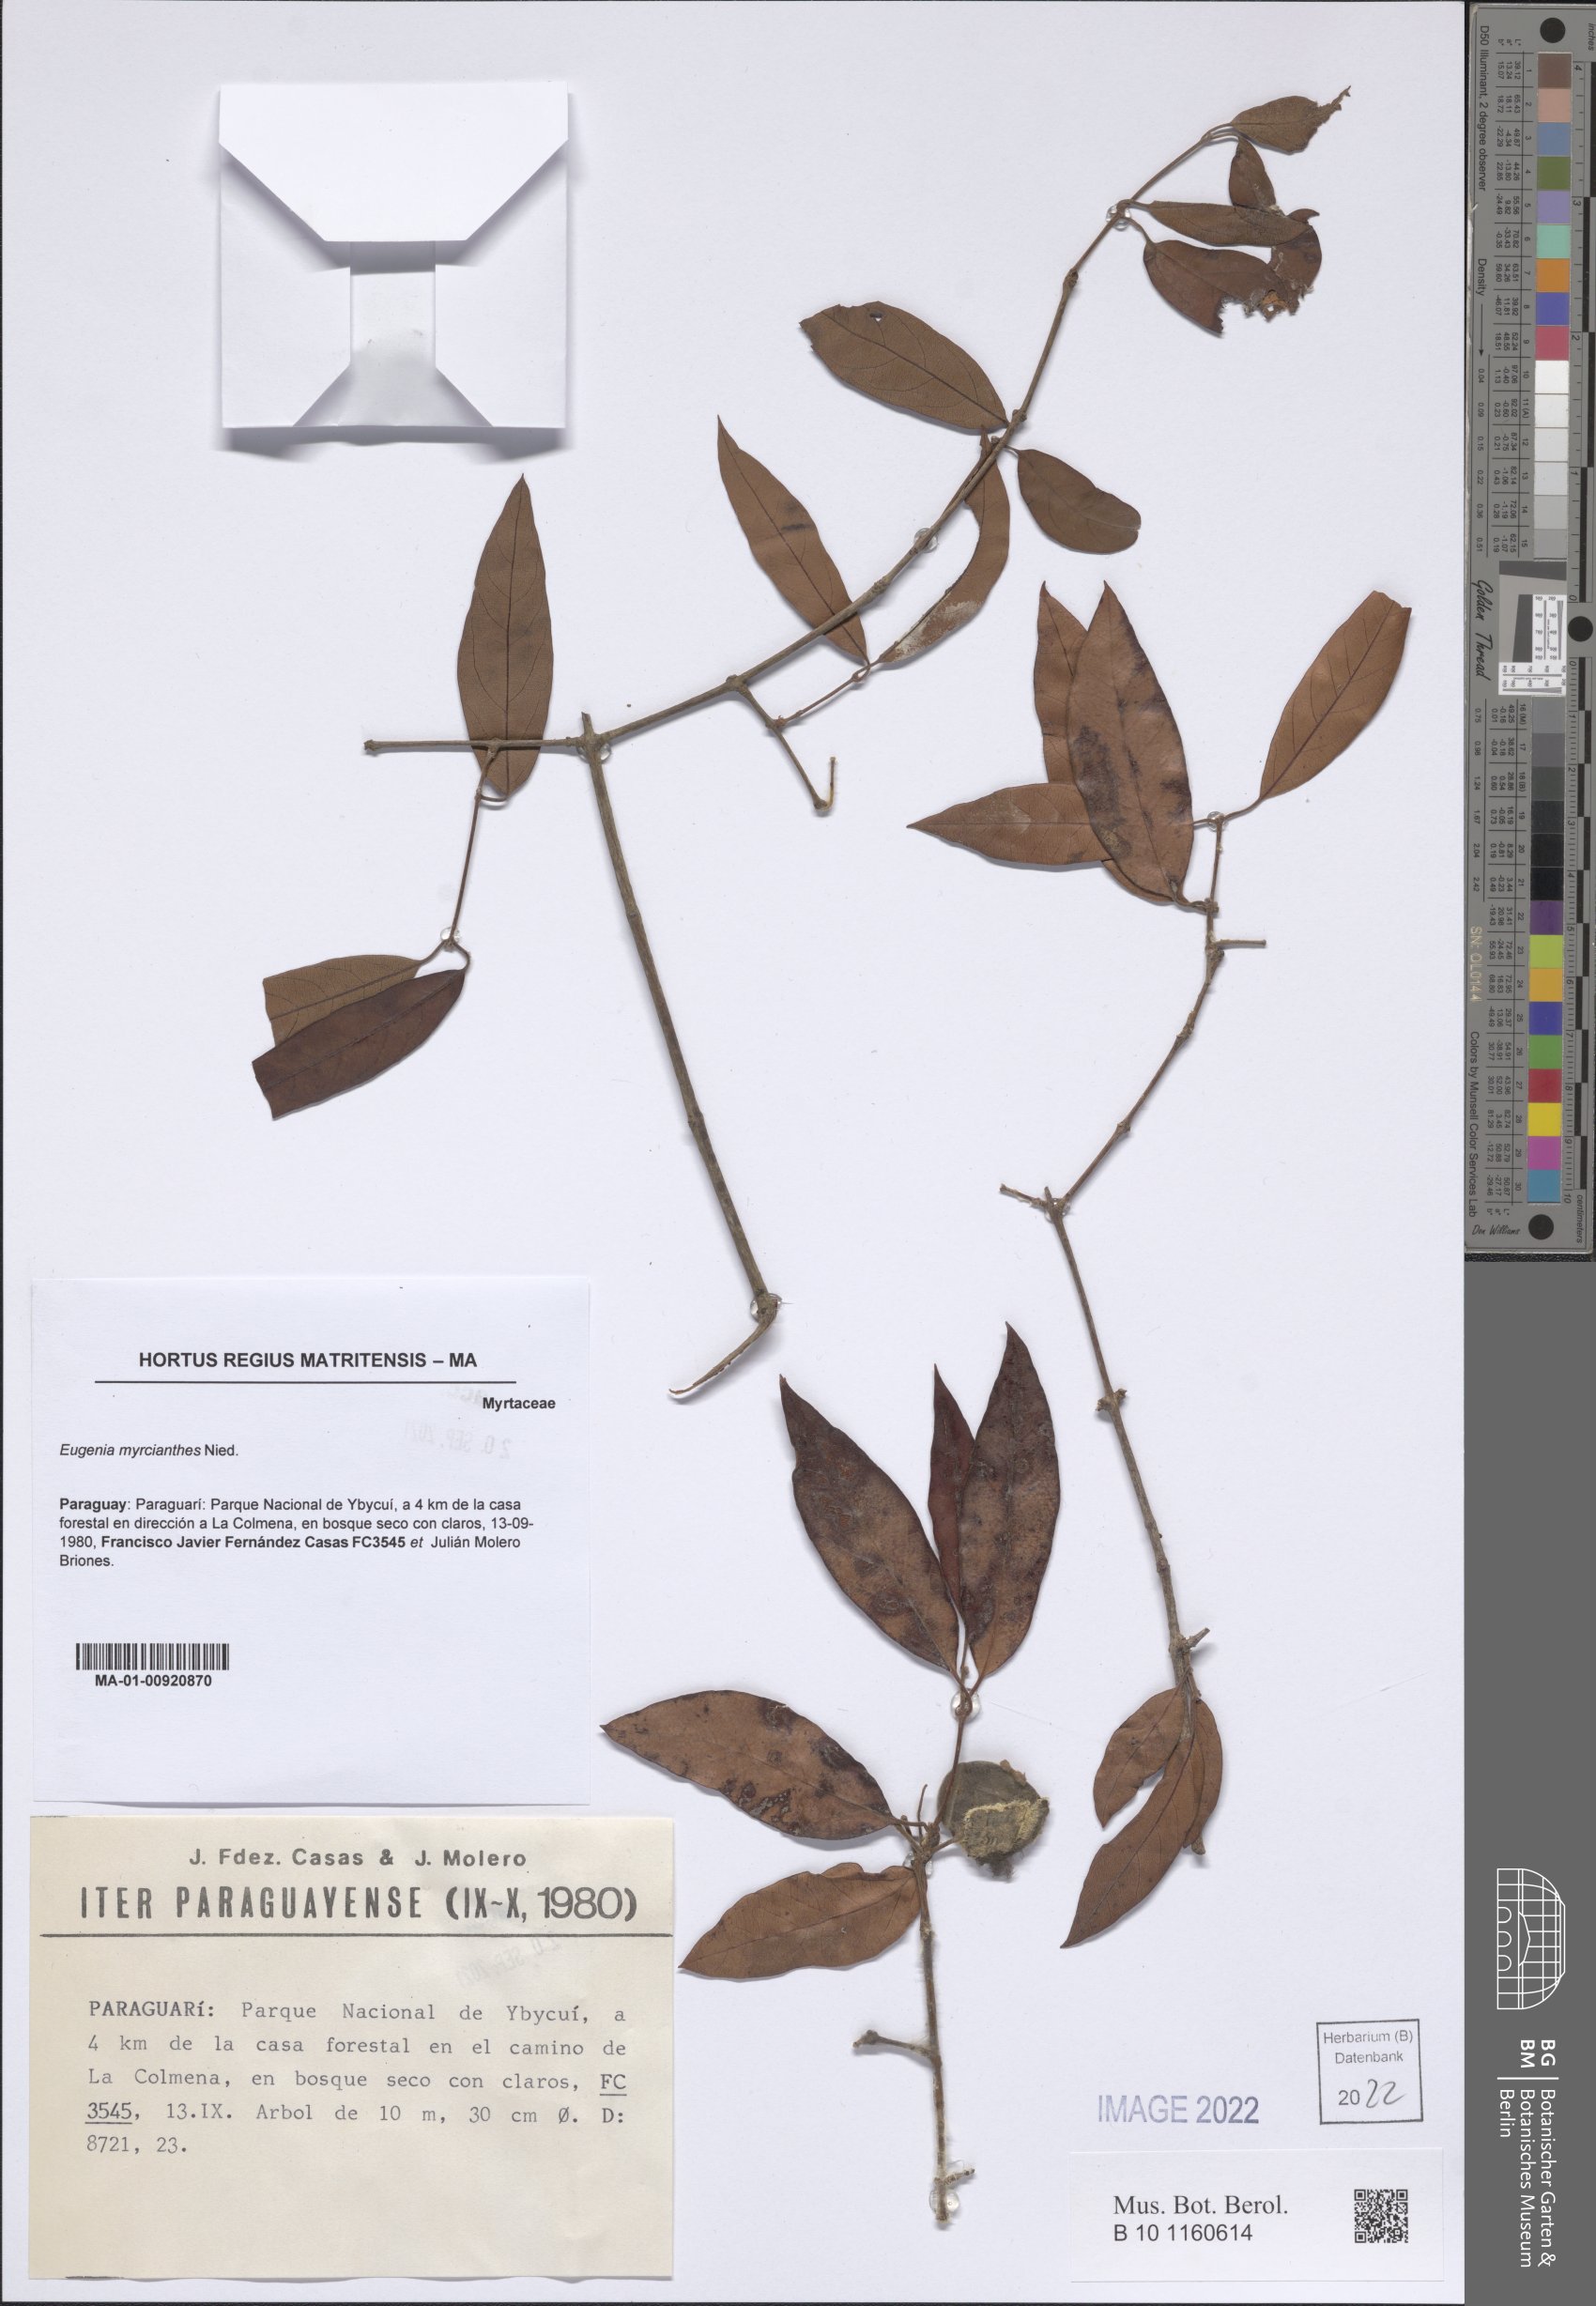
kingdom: Plantae
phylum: Tracheophyta
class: Magnoliopsida
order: Myrtales
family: Myrtaceae
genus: Eugenia
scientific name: Eugenia myrcianthes
